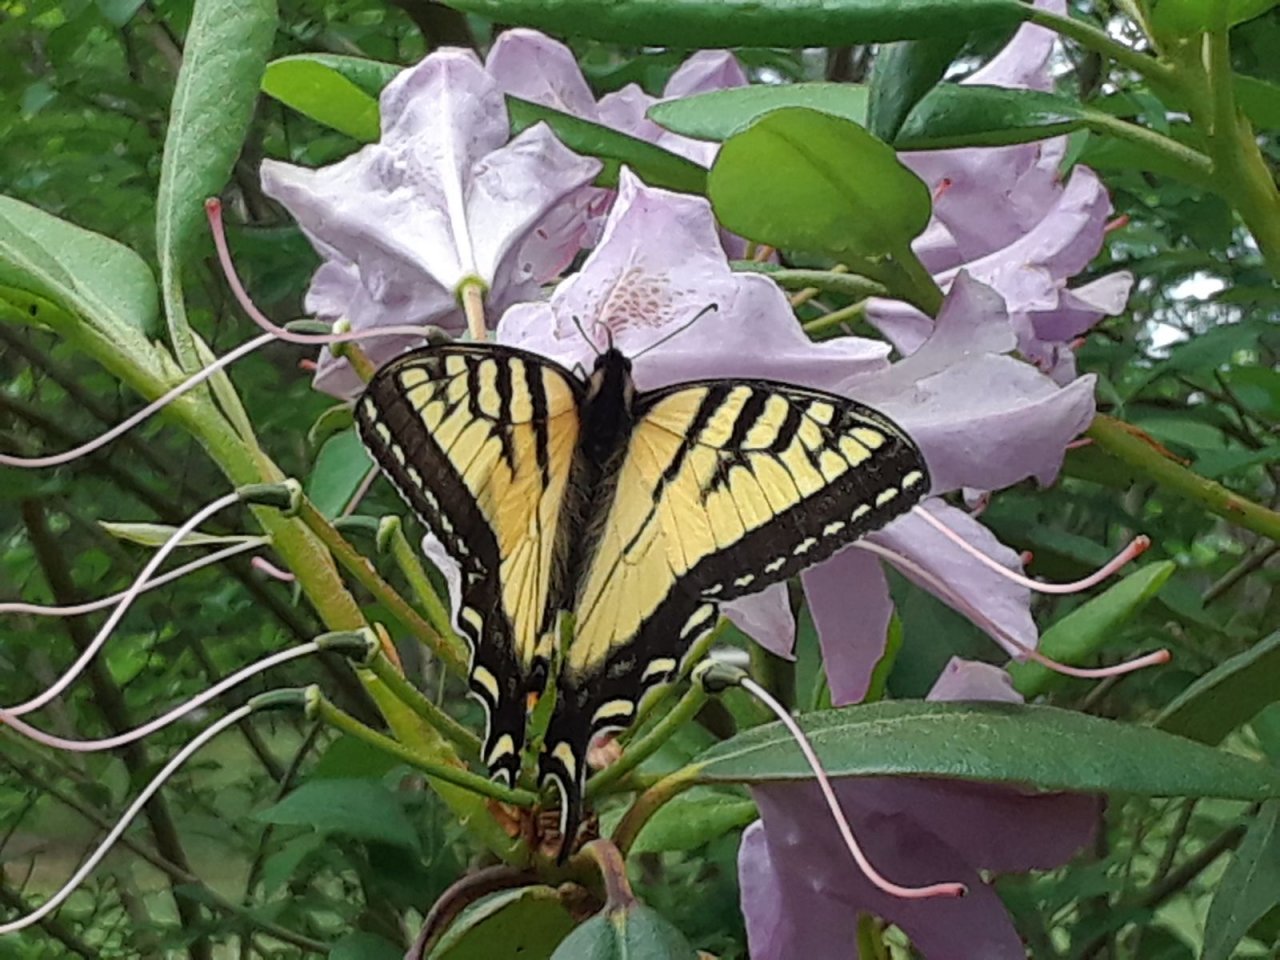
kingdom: Animalia
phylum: Arthropoda
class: Insecta
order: Lepidoptera
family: Papilionidae
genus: Pterourus
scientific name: Pterourus canadensis
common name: Canadian Tiger Swallowtail
